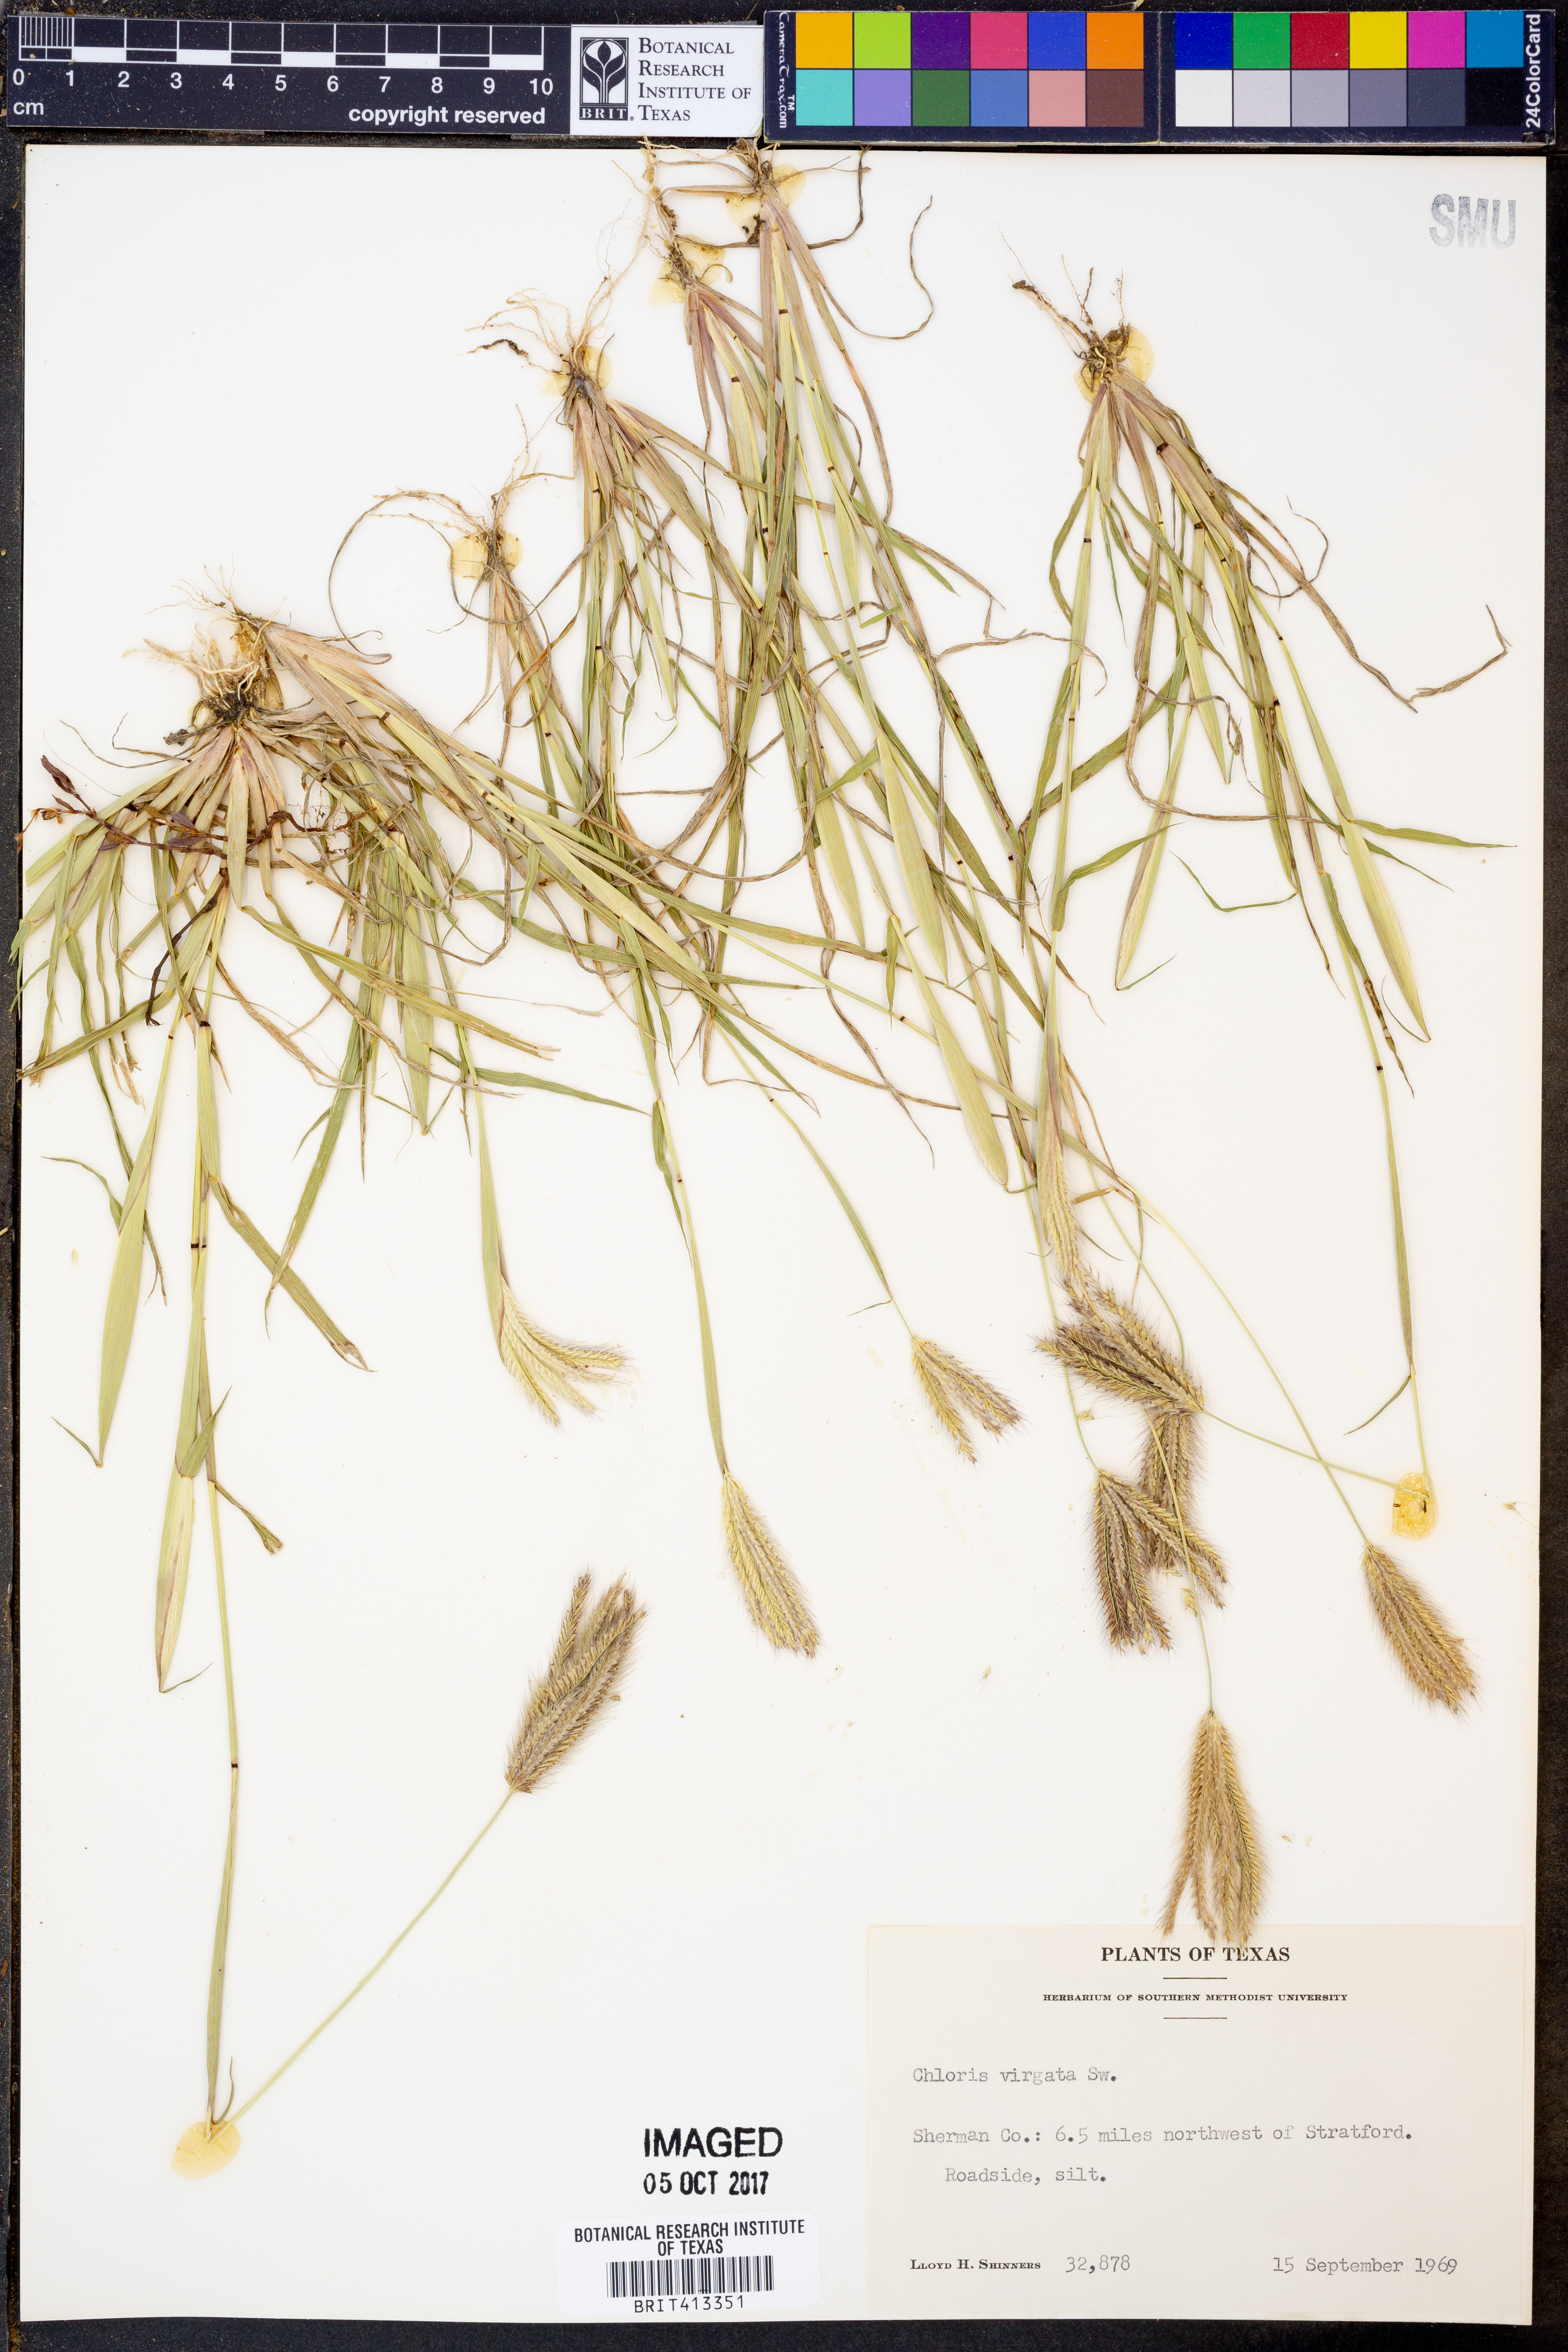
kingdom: Plantae
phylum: Tracheophyta
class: Liliopsida
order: Poales
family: Poaceae
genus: Chloris
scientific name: Chloris virgata
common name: Feathery rhodes-grass
